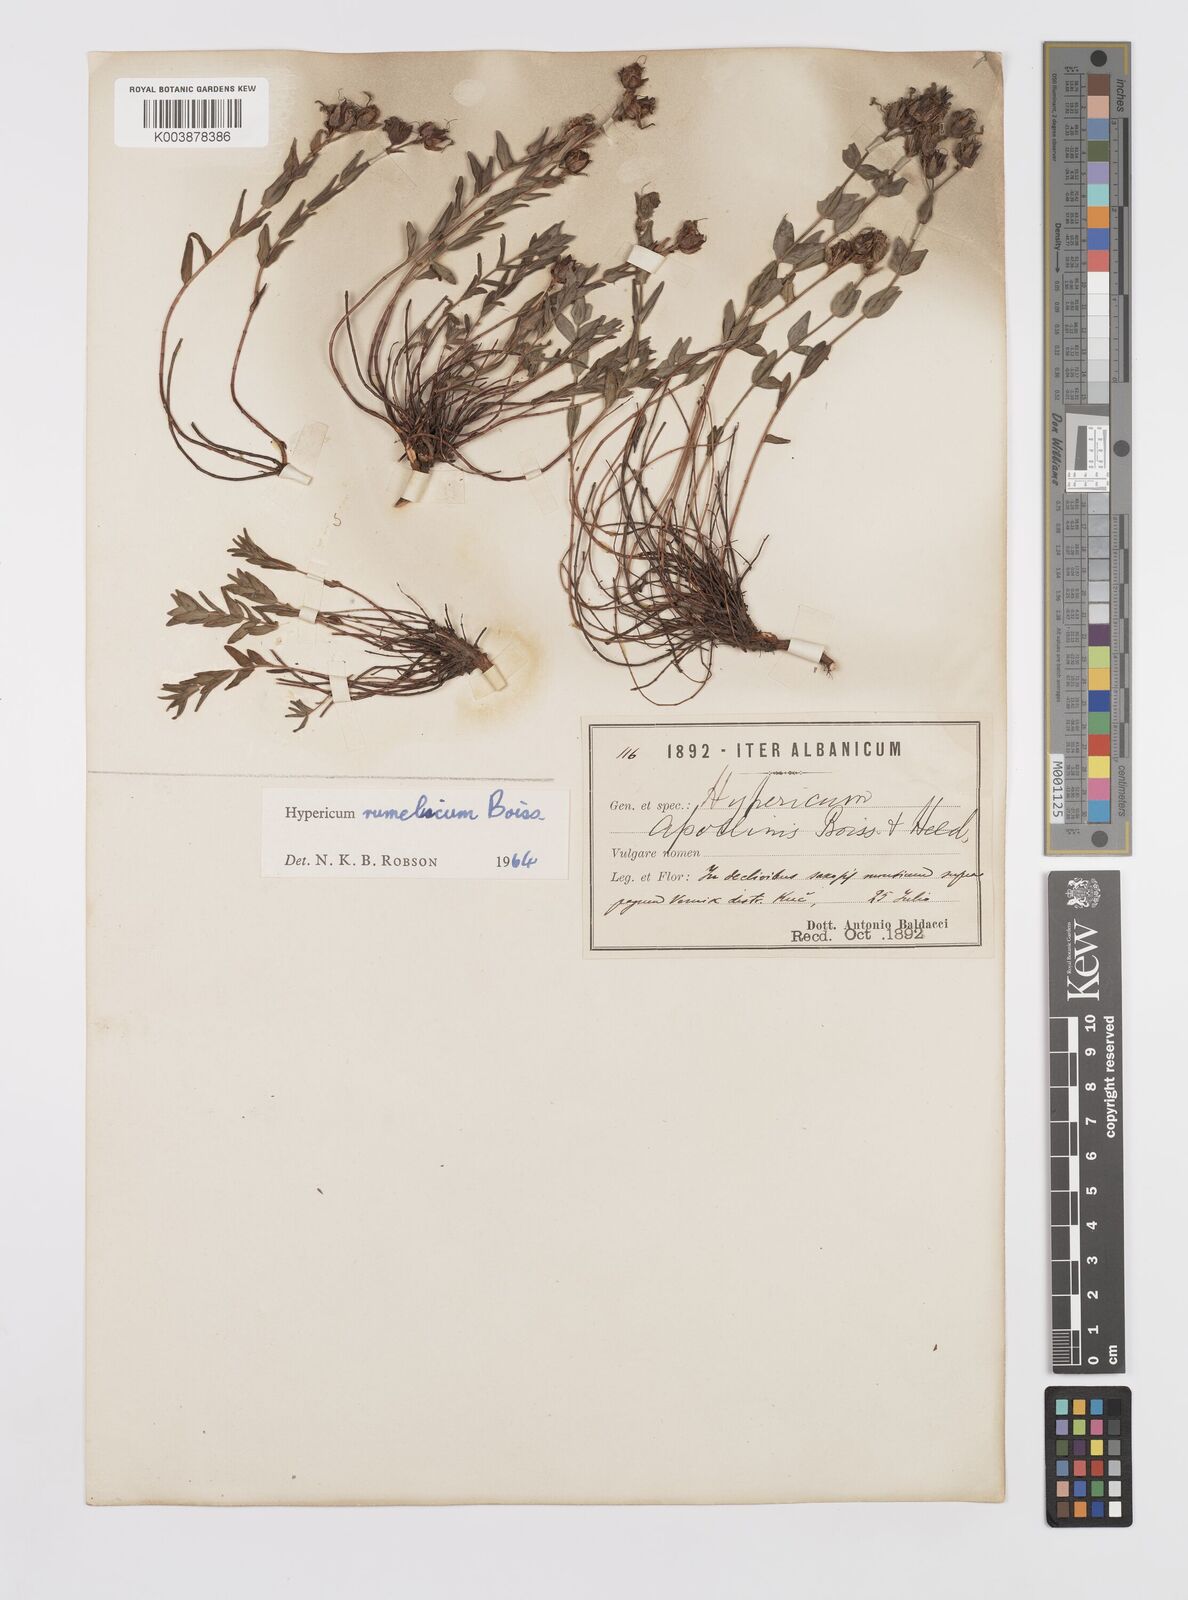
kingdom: Plantae
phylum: Tracheophyta
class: Magnoliopsida
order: Malpighiales
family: Hypericaceae
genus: Hypericum
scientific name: Hypericum rumeliacum
